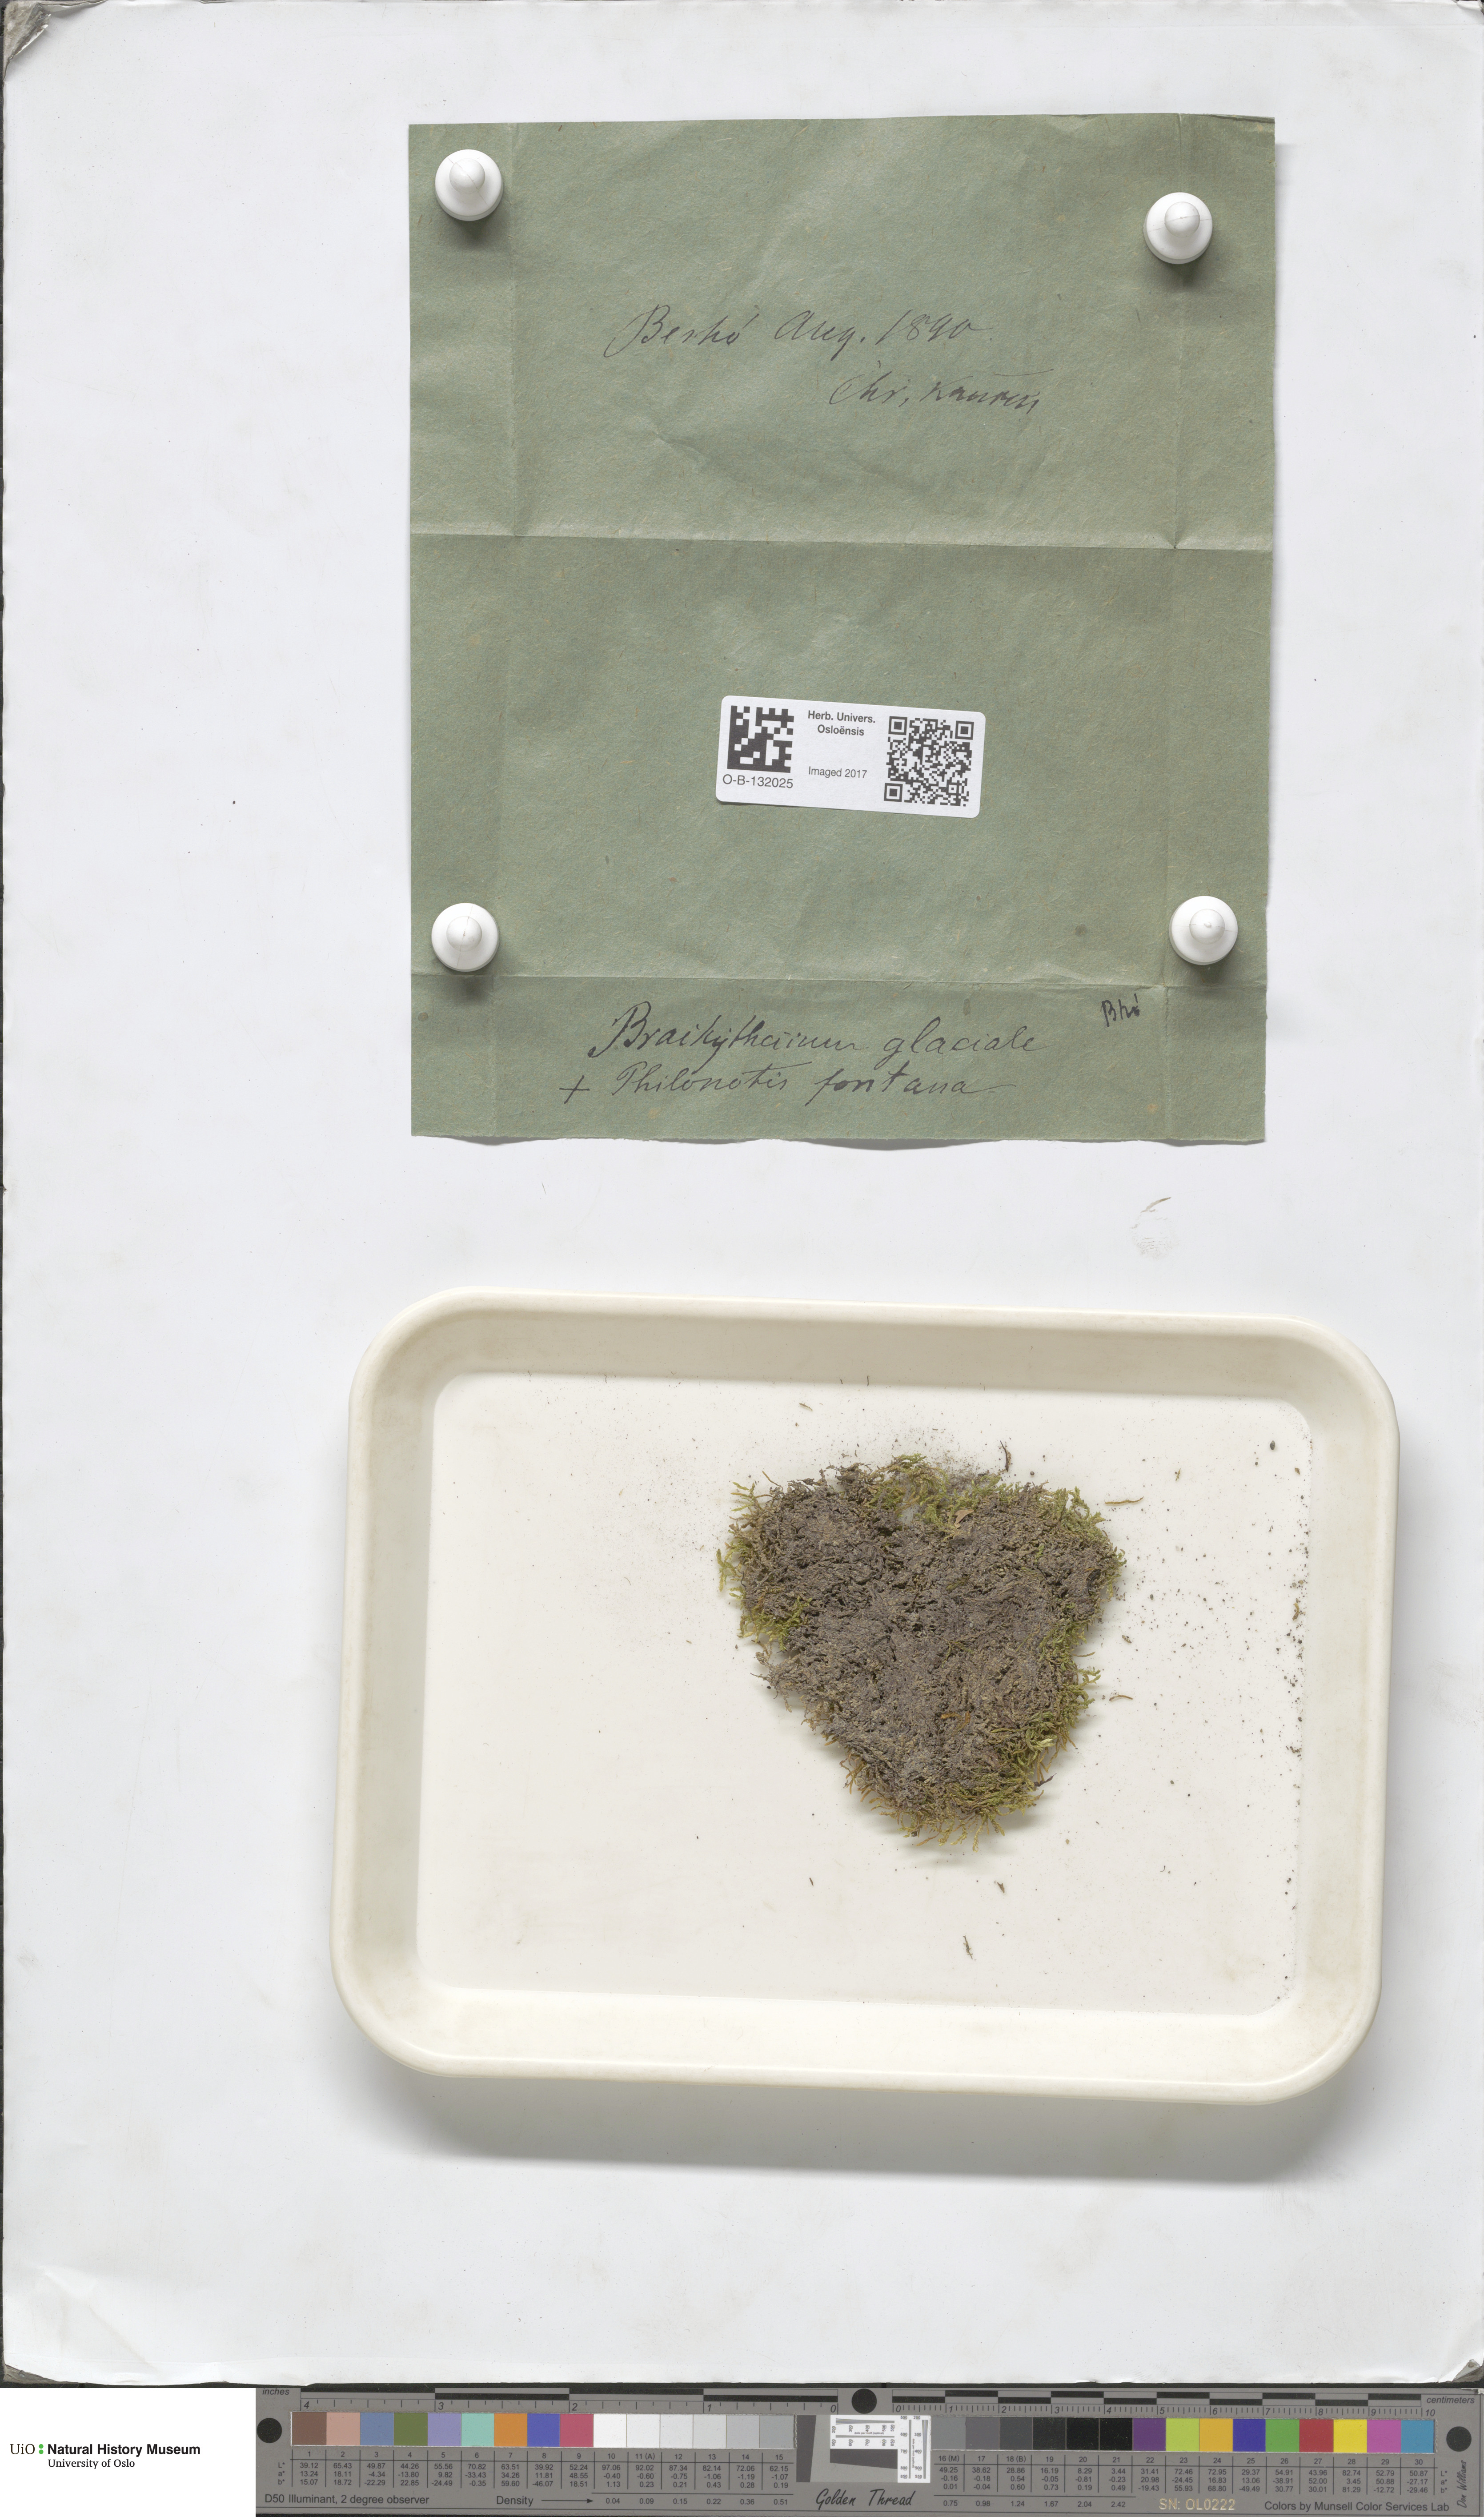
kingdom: Plantae
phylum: Bryophyta
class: Bryopsida
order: Hypnales
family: Brachytheciaceae
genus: Brachythecium
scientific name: Brachythecium erythrorrhizon
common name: Taiga ragged moss
